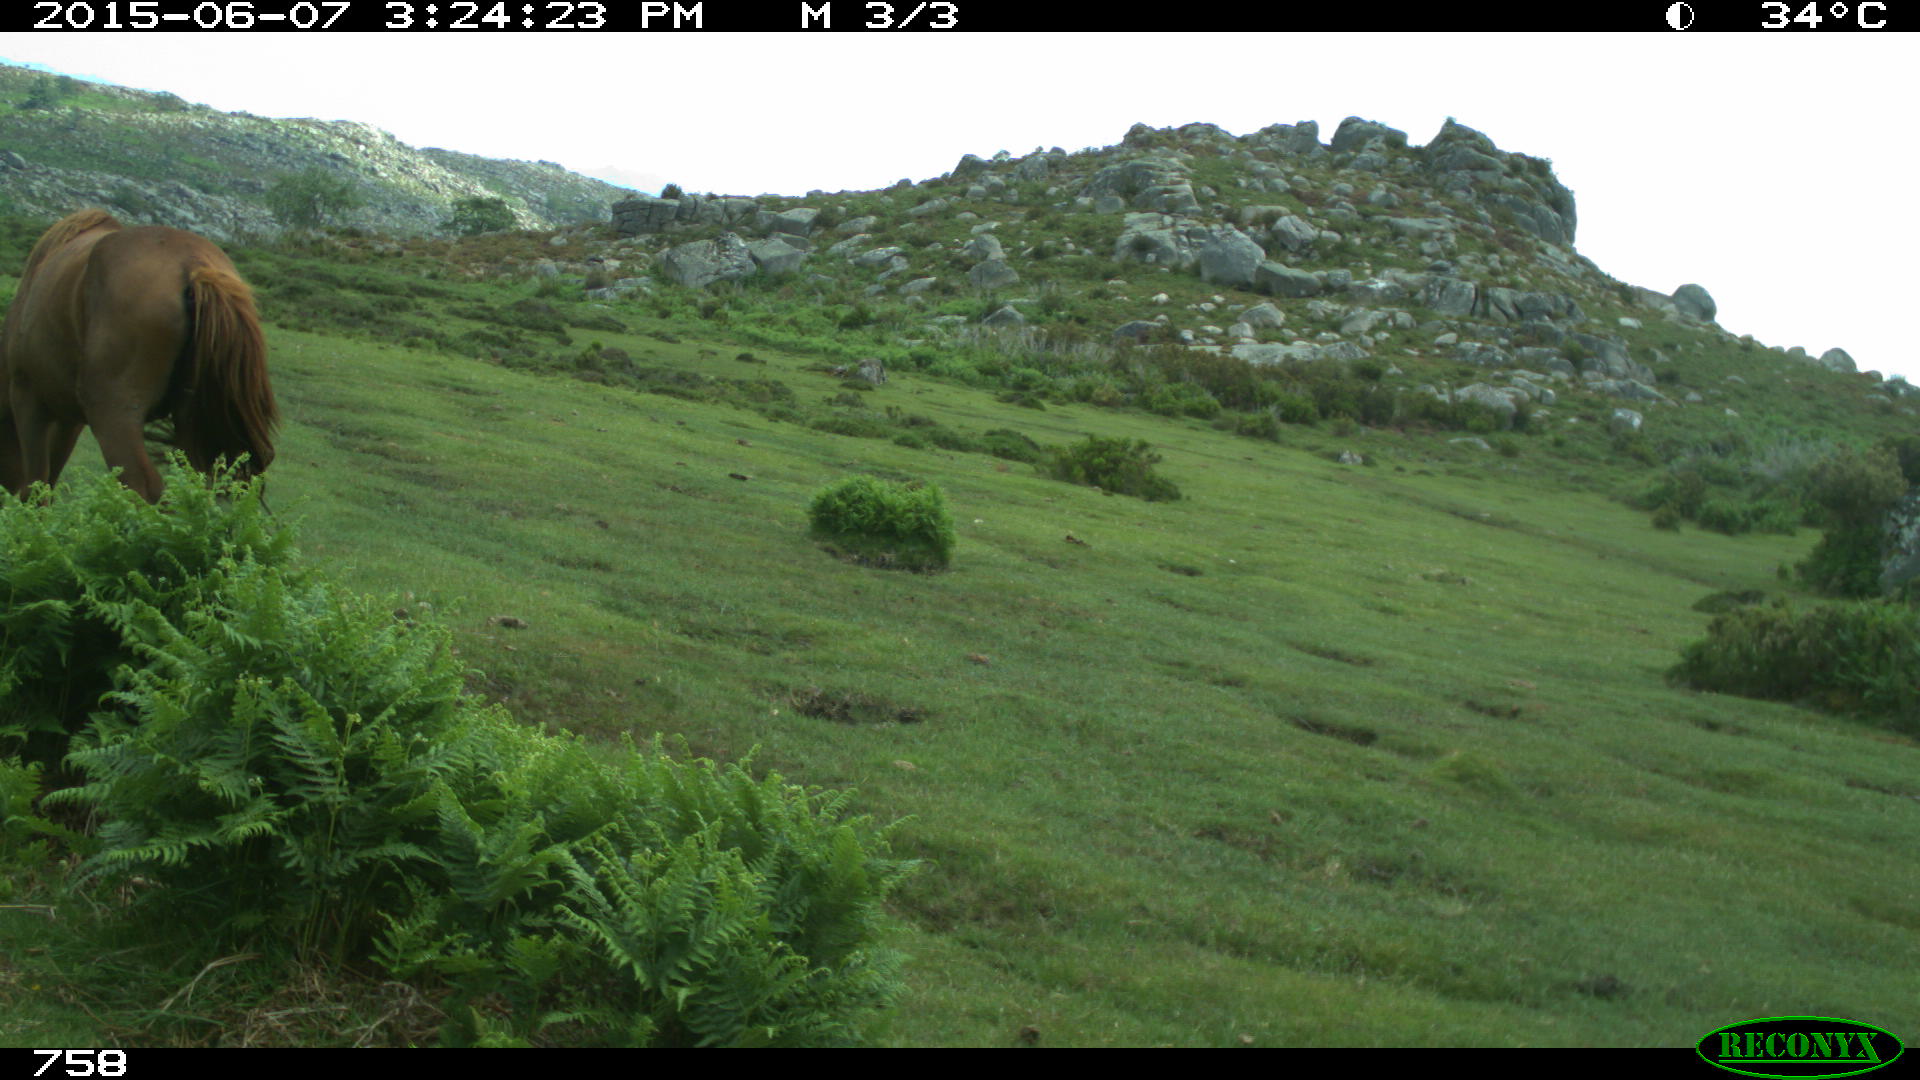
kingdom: Animalia
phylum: Chordata
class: Mammalia
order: Artiodactyla
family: Bovidae
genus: Bos
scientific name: Bos taurus
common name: Domesticated cattle
